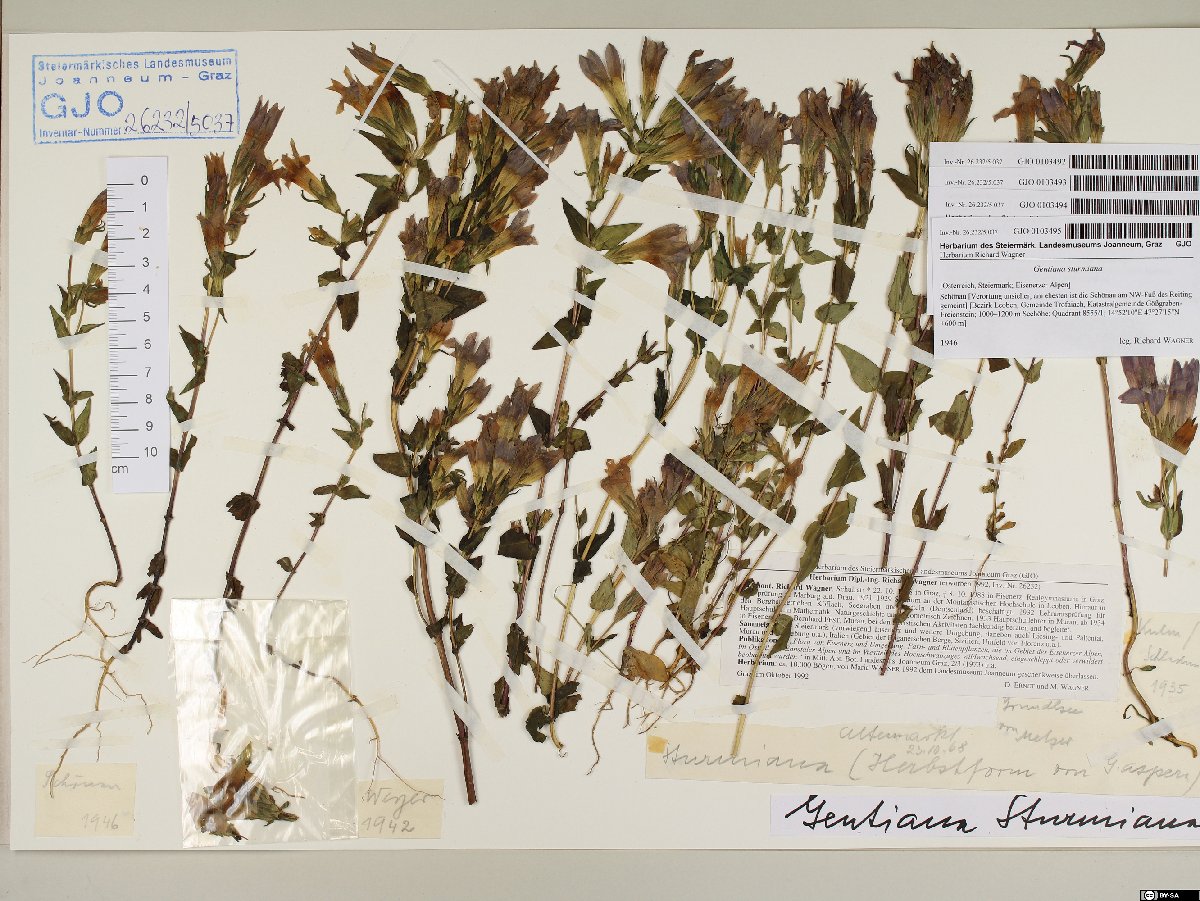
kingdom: Plantae
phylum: Tracheophyta
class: Magnoliopsida
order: Gentianales
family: Gentianaceae
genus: Gentianella
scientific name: Gentianella obtusifolia
